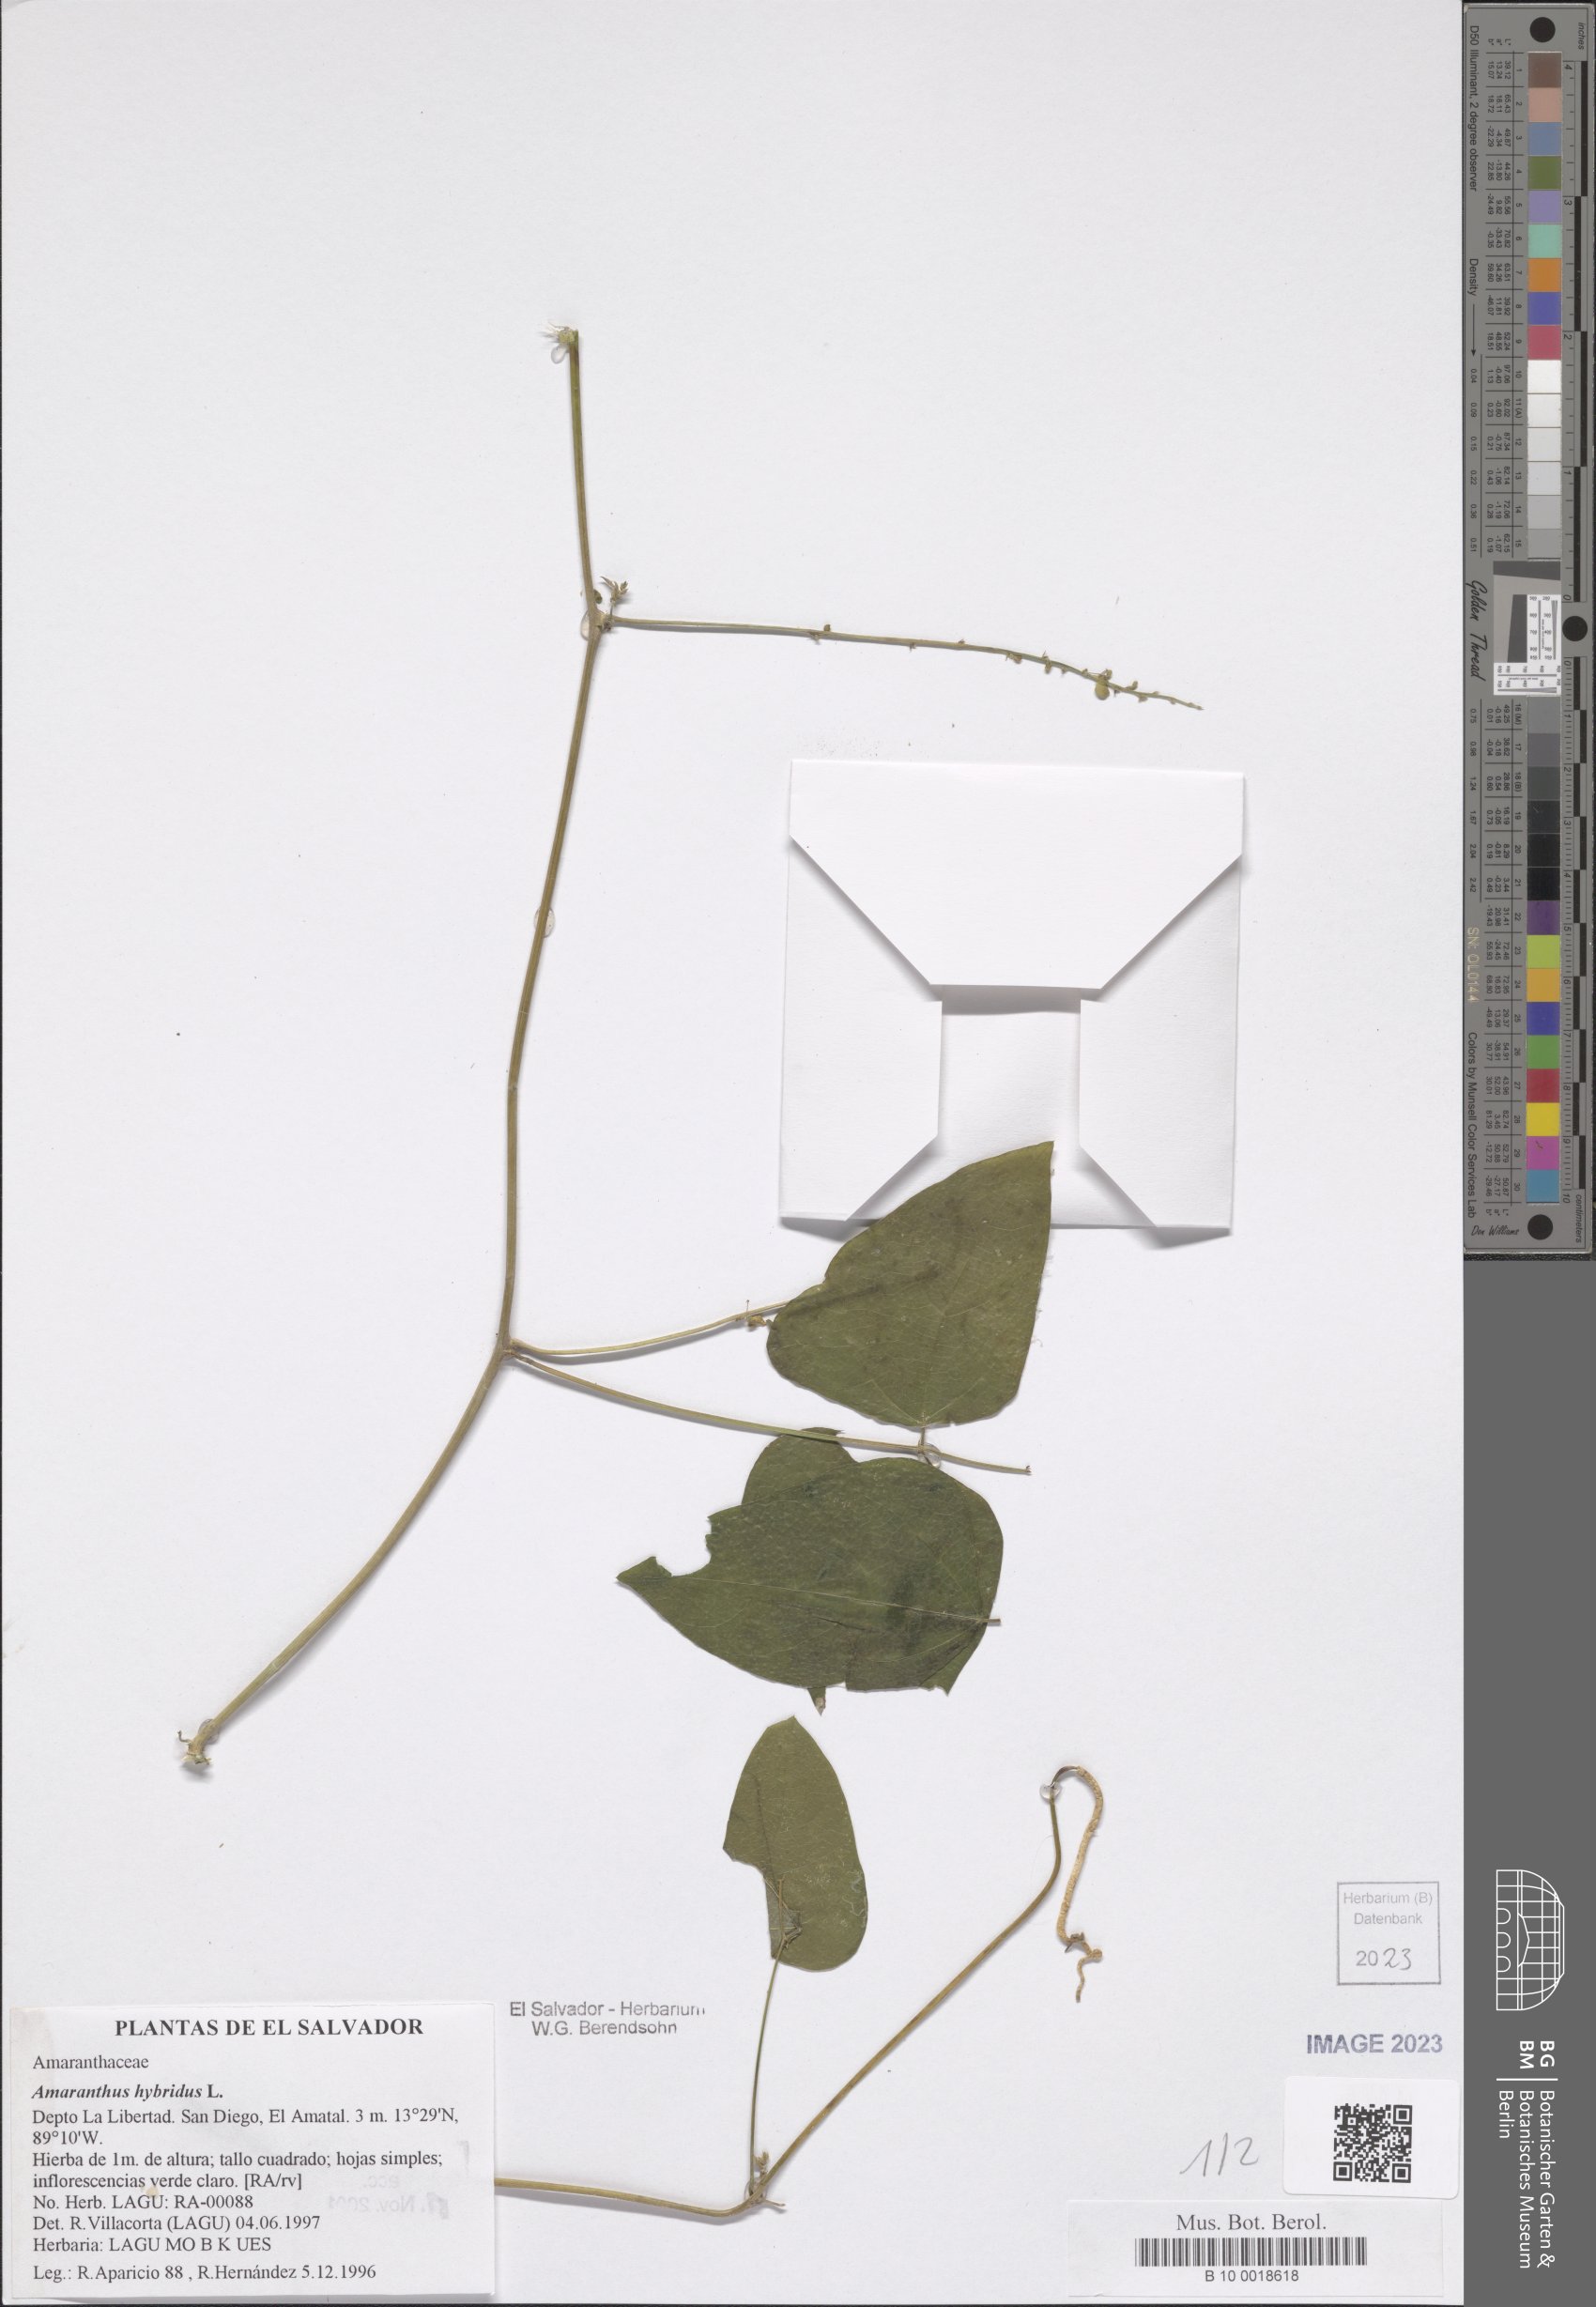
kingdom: Plantae
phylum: Tracheophyta
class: Magnoliopsida
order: Caryophyllales
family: Amaranthaceae
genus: Amaranthus
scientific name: Amaranthus hybridus
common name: Green amaranth
